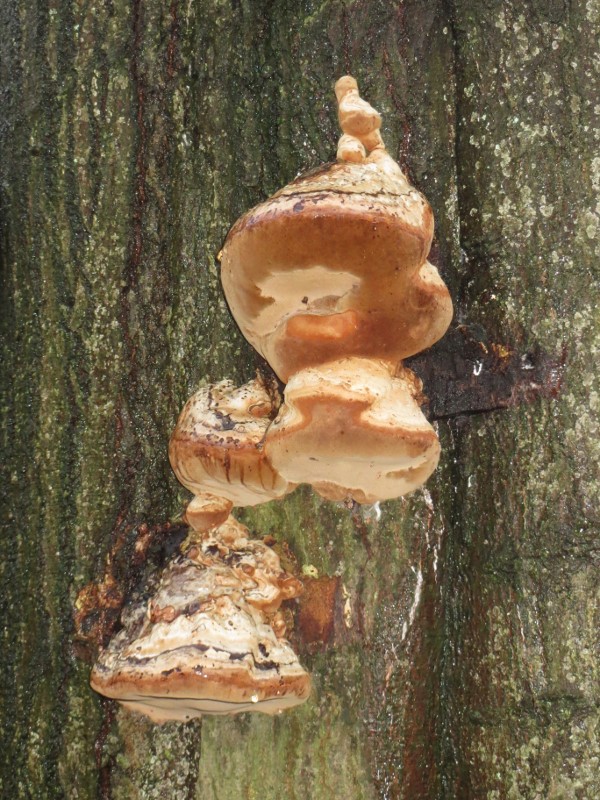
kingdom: Fungi
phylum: Basidiomycota
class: Agaricomycetes
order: Polyporales
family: Polyporaceae
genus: Fomes
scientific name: Fomes fomentarius
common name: tøndersvamp
